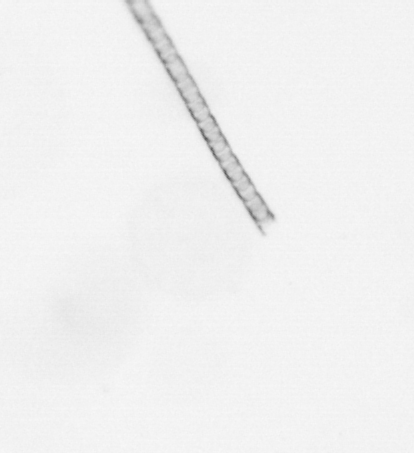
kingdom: Chromista
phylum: Ochrophyta
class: Bacillariophyceae
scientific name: Bacillariophyceae
